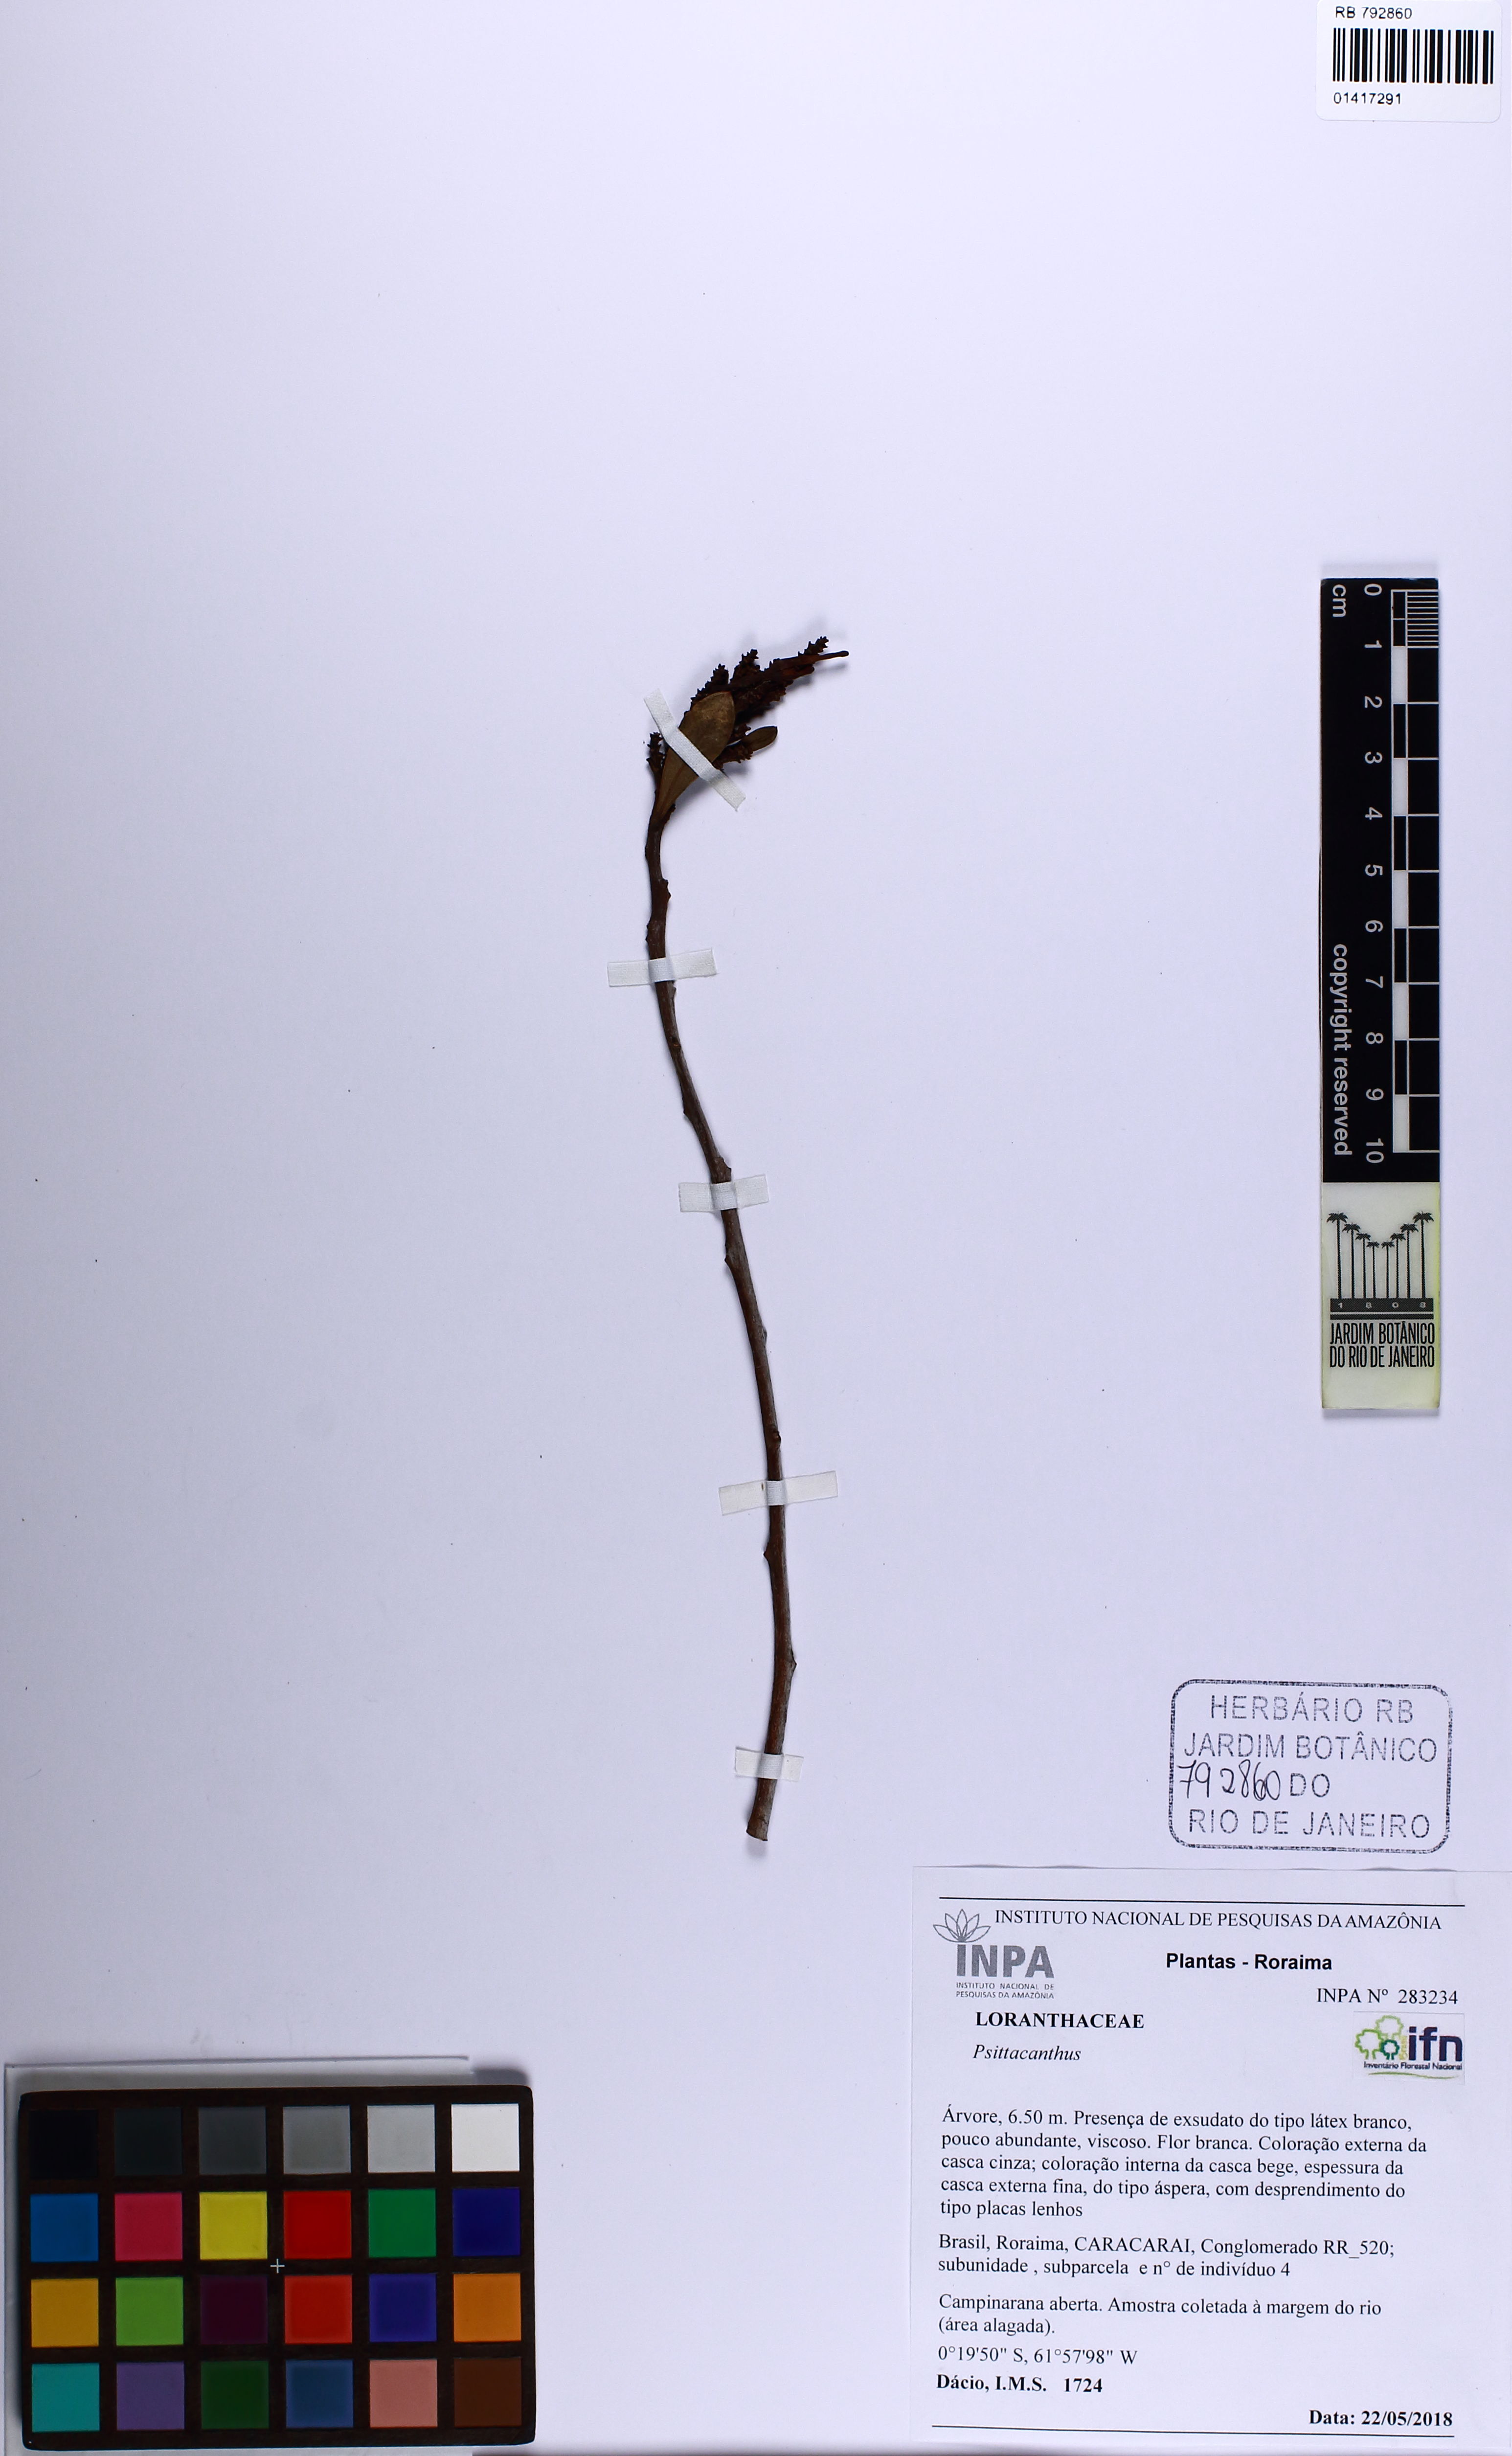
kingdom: Plantae
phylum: Tracheophyta
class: Magnoliopsida
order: Santalales
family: Loranthaceae
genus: Psittacanthus
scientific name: Psittacanthus
